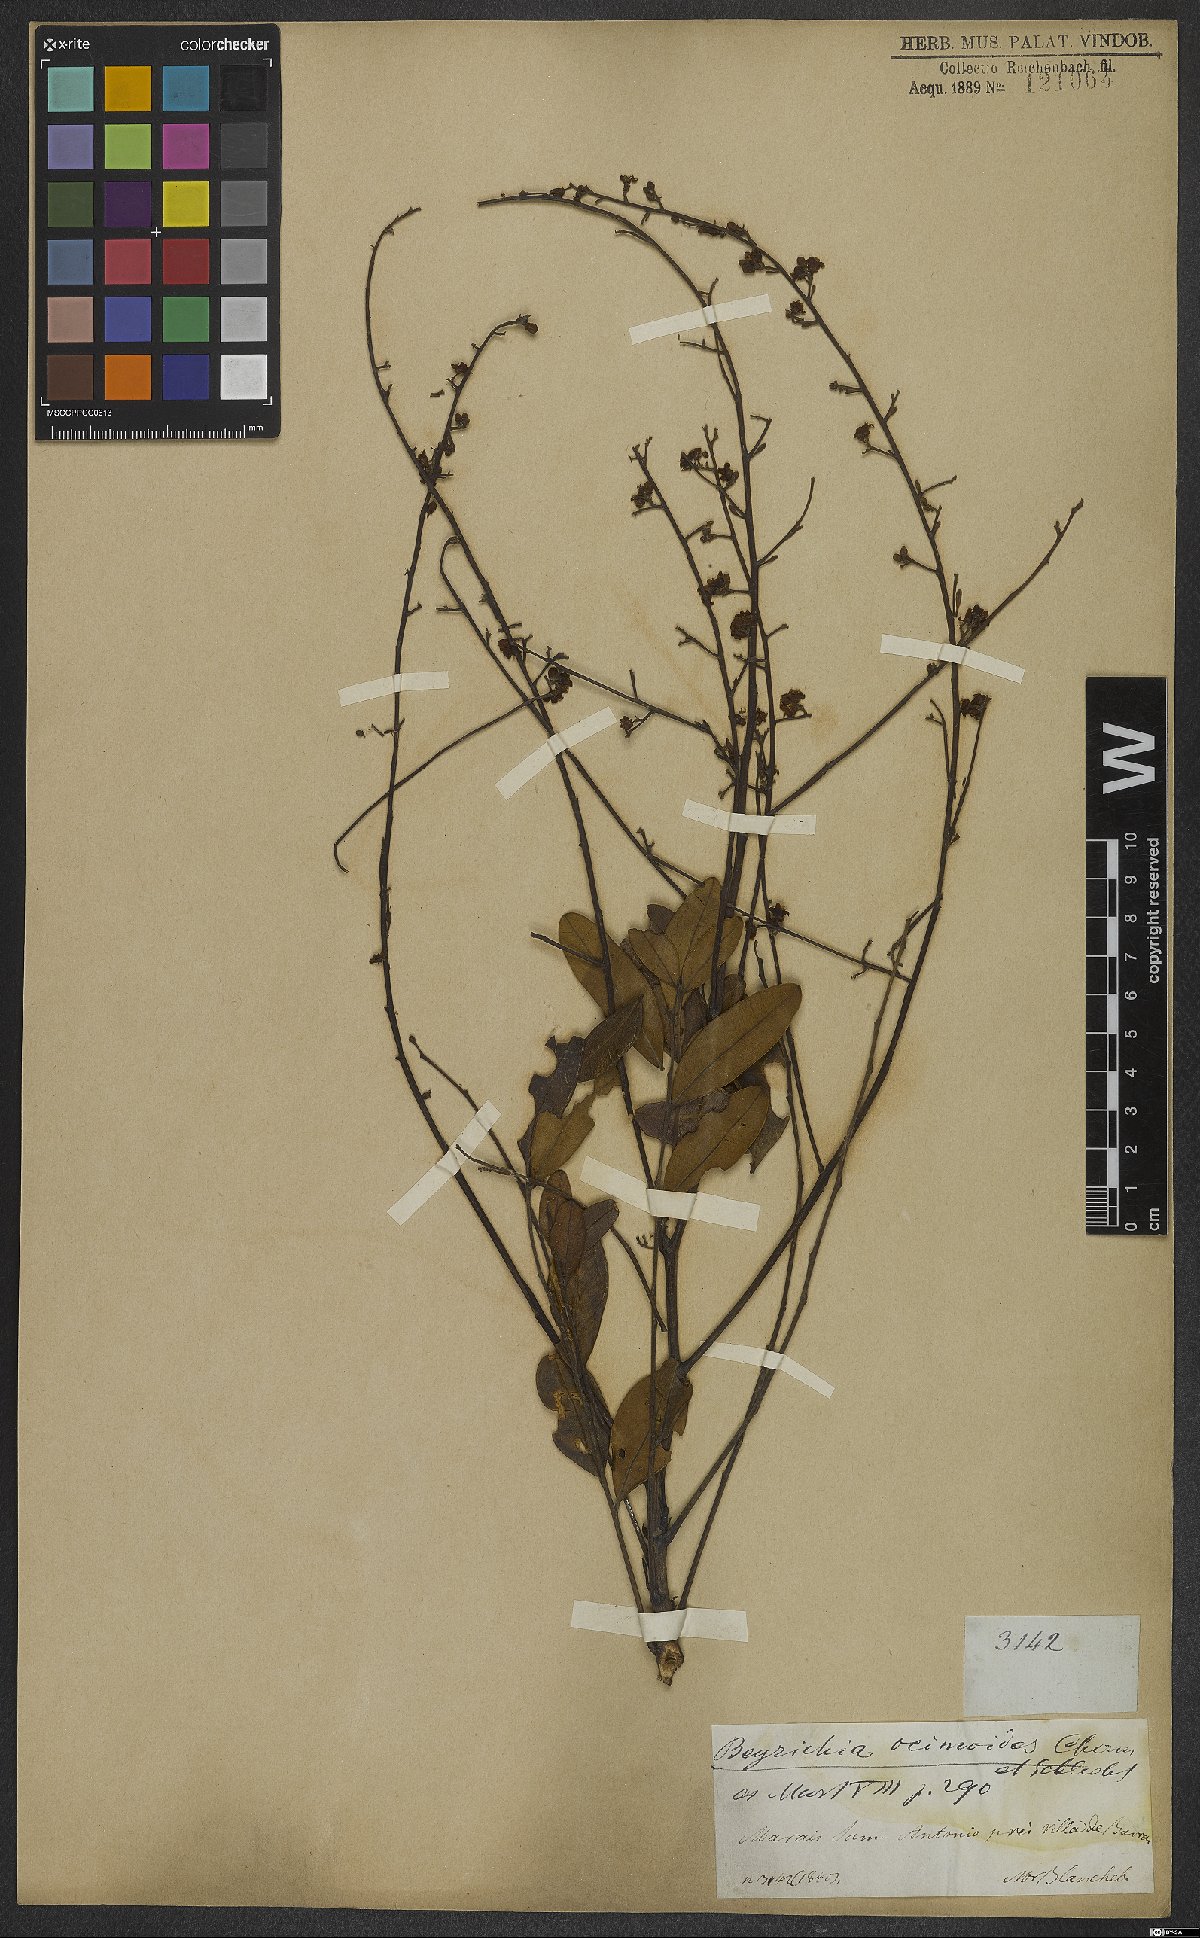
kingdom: Plantae
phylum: Tracheophyta
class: Magnoliopsida
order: Lamiales
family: Plantaginaceae
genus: Matourea
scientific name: Matourea ocymoides
